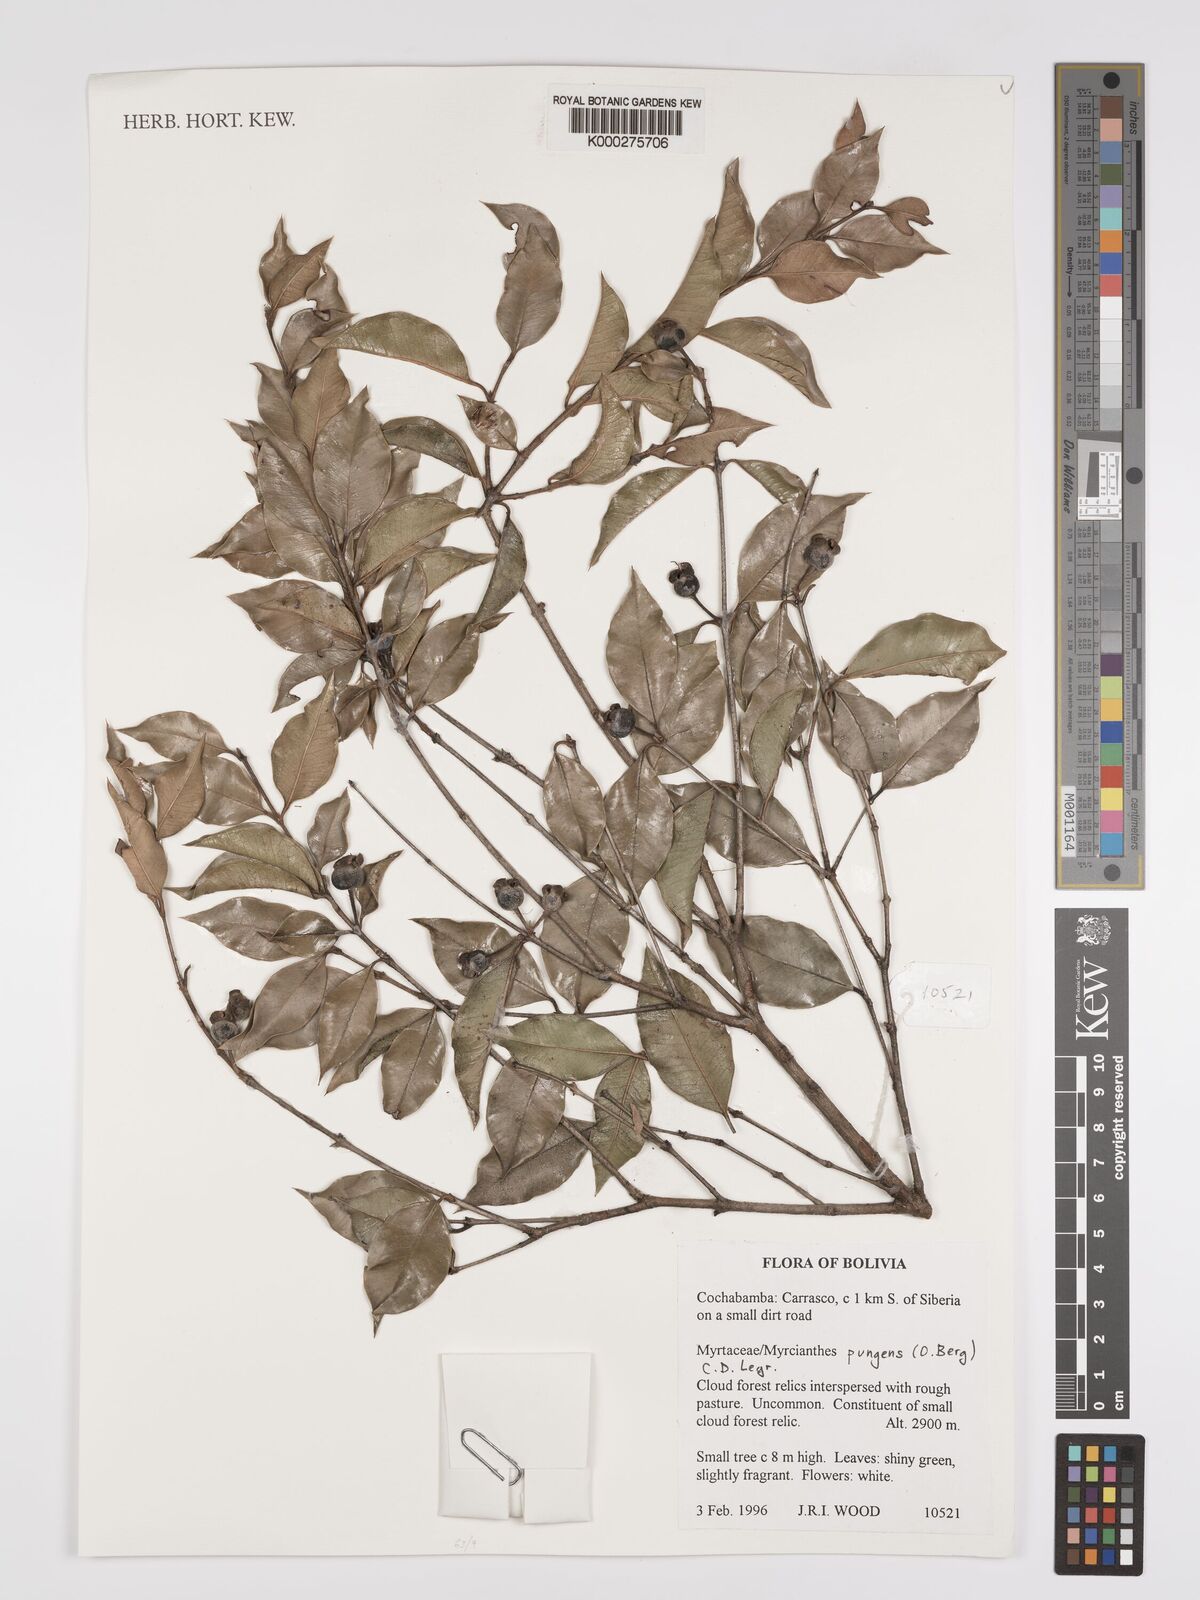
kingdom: Plantae
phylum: Tracheophyta
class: Magnoliopsida
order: Myrtales
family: Myrtaceae
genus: Myrcianthes
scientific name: Myrcianthes
